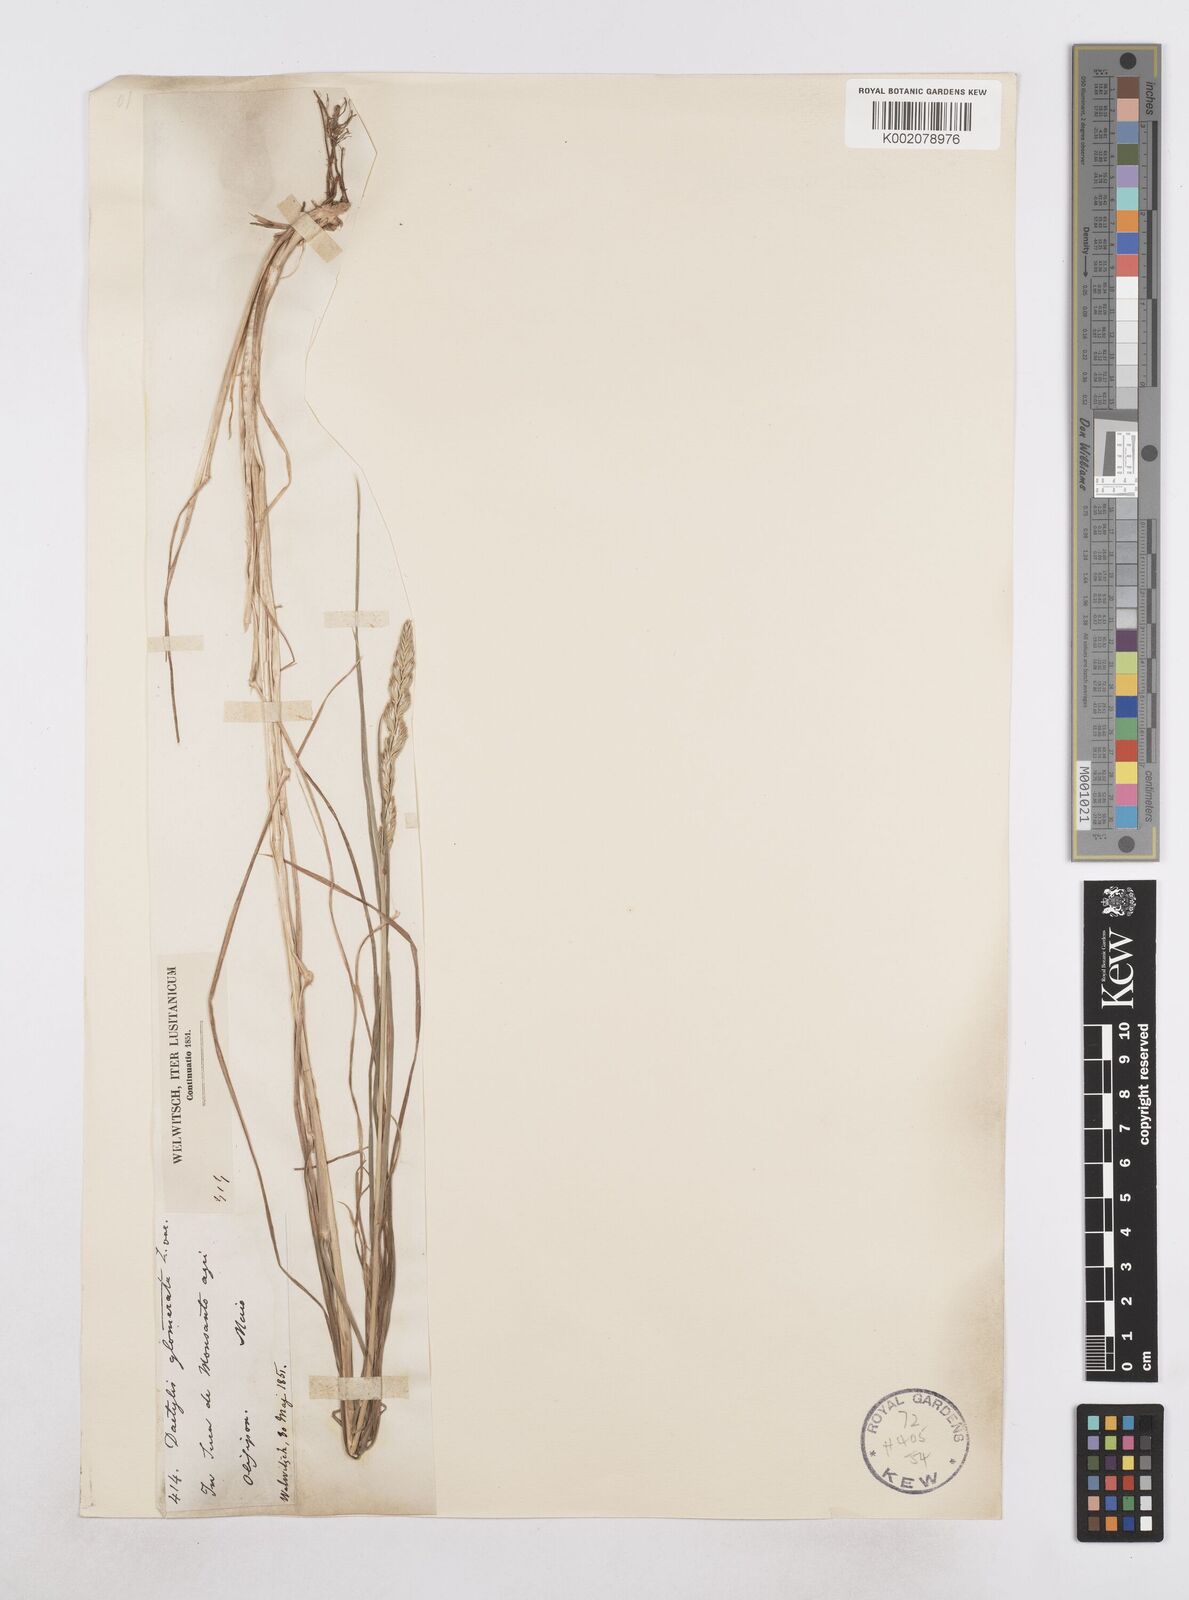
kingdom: Plantae
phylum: Tracheophyta
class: Liliopsida
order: Poales
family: Poaceae
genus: Dactylis
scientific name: Dactylis glomerata
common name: Orchardgrass
